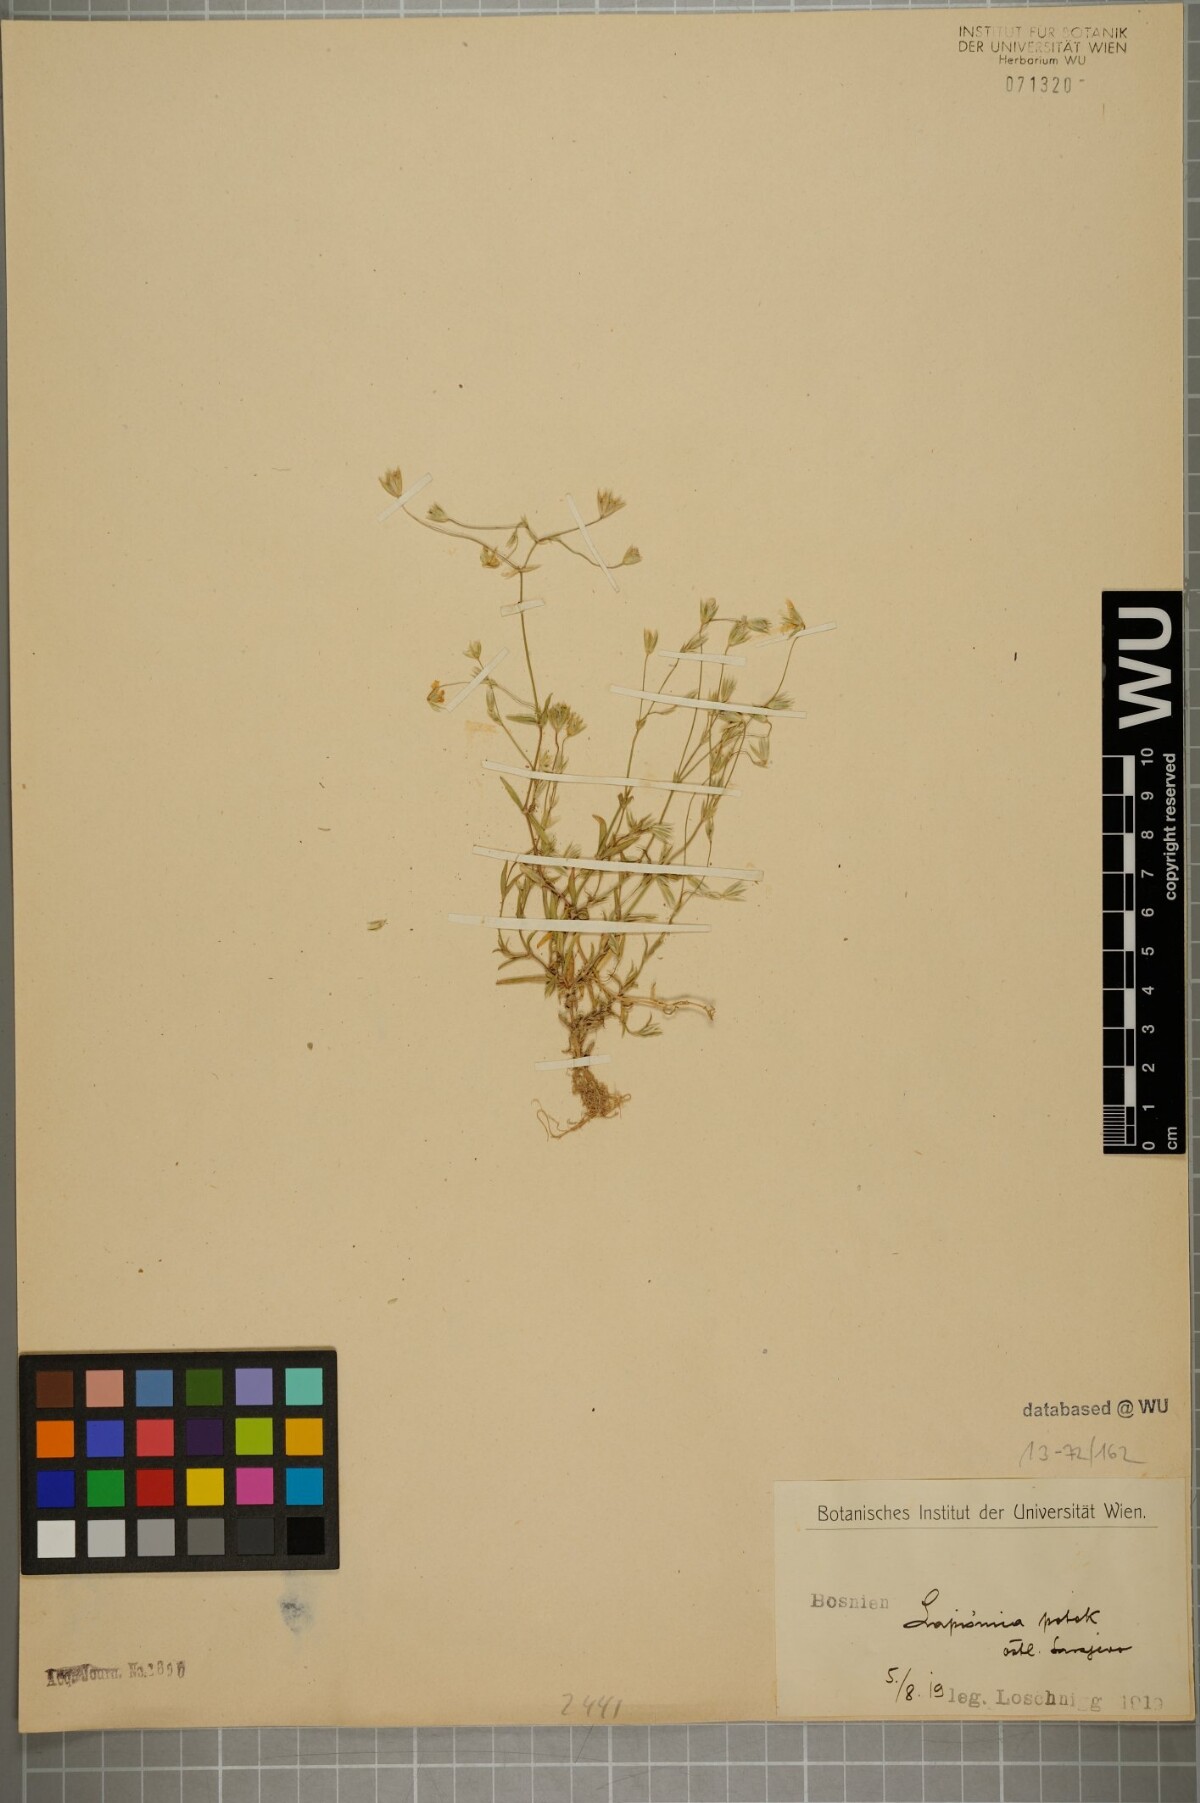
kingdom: Plantae
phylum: Tracheophyta
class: Magnoliopsida
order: Caryophyllales
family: Caryophyllaceae
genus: Moenchia
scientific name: Moenchia mantica
